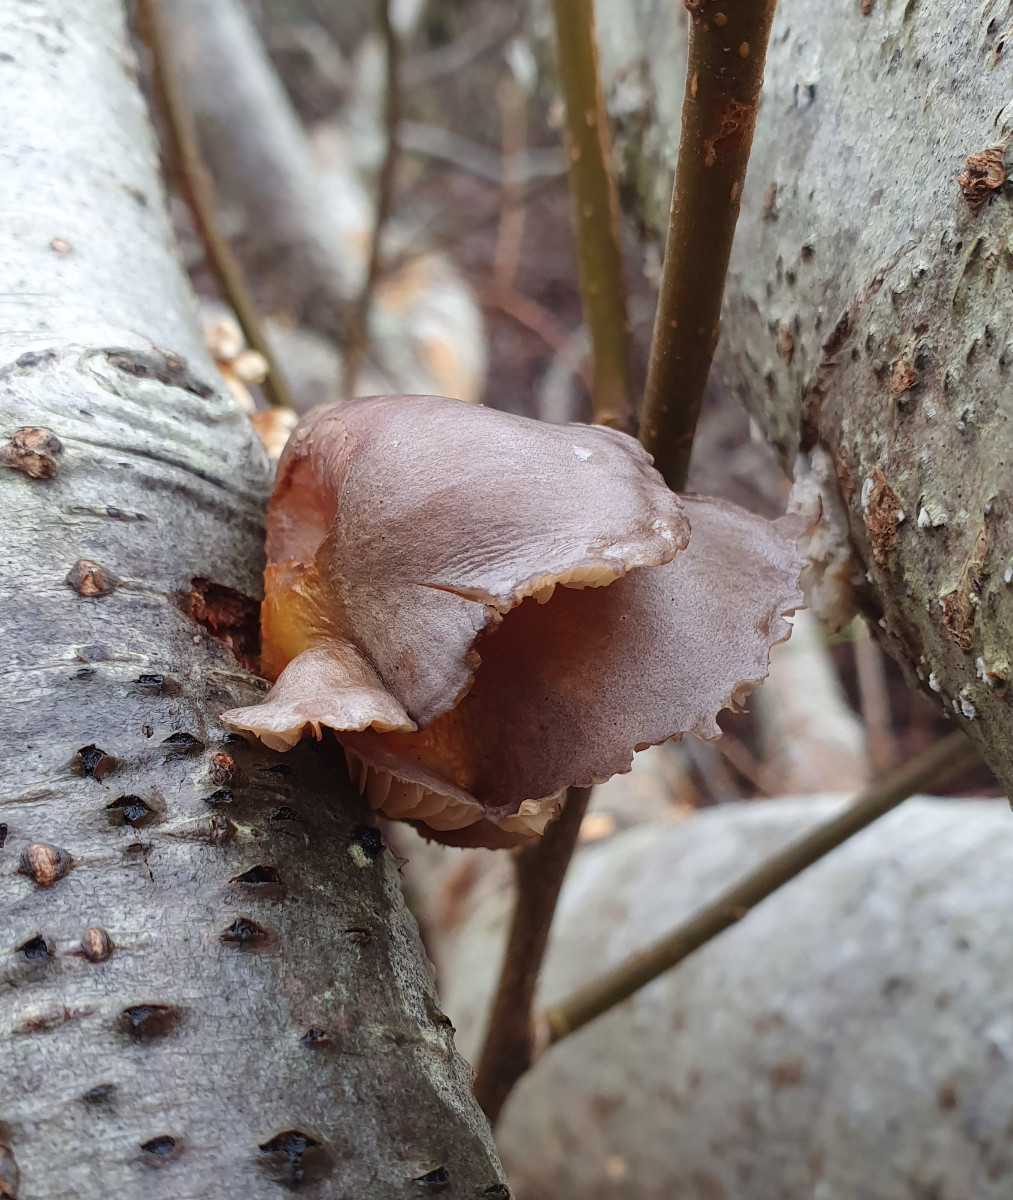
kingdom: Fungi
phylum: Basidiomycota
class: Agaricomycetes
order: Agaricales
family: Sarcomyxaceae
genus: Sarcomyxa
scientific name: Sarcomyxa serotina
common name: gummihat
